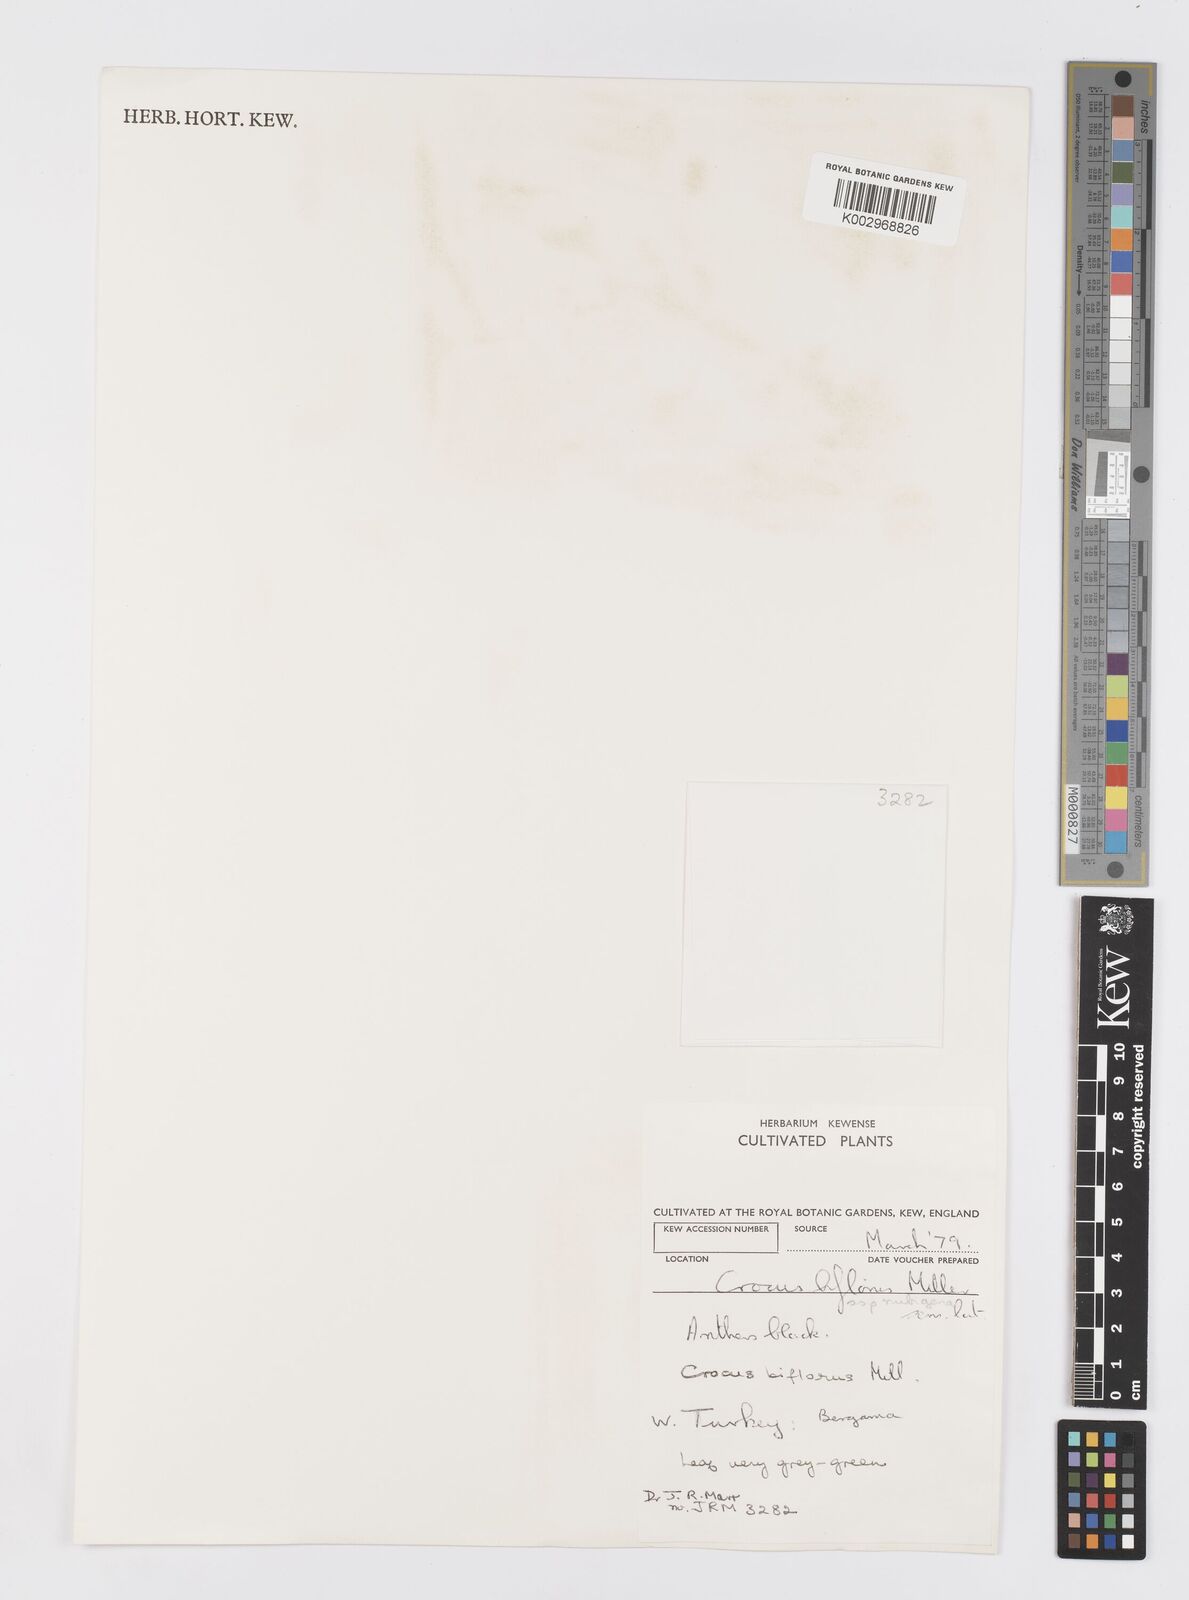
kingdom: Plantae
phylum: Tracheophyta
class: Liliopsida
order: Asparagales
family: Iridaceae
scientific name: Iridaceae
